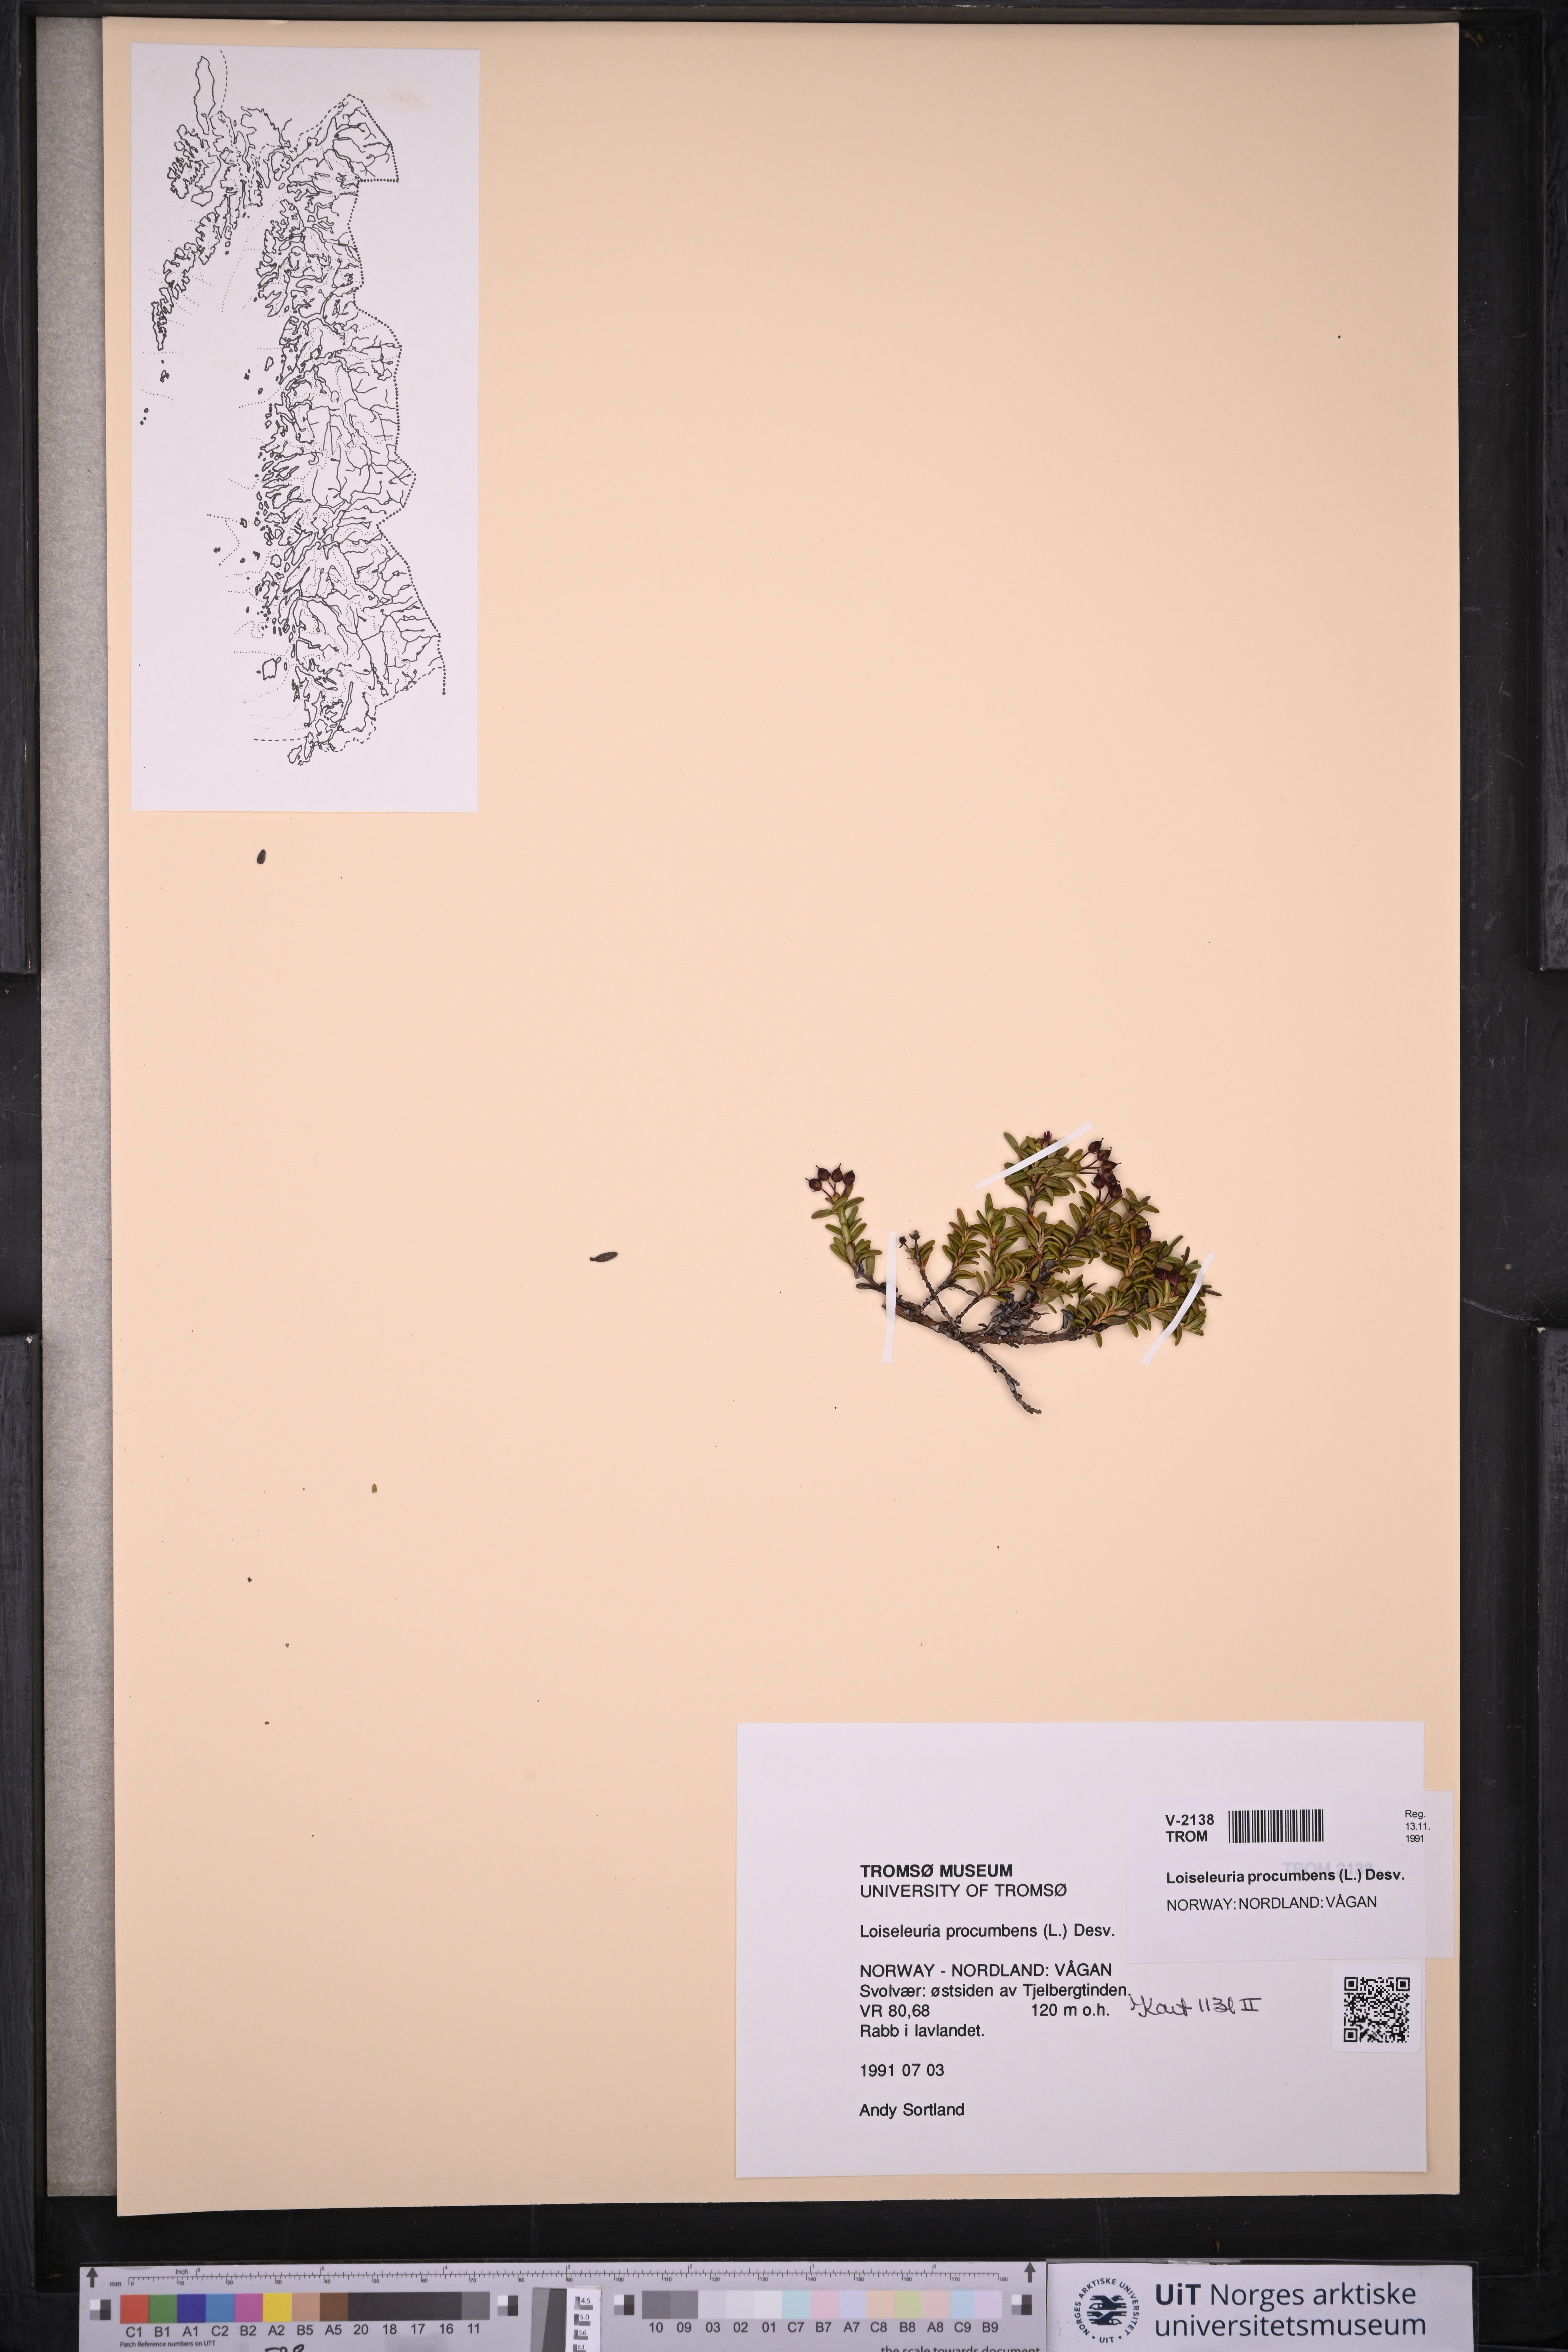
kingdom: Plantae
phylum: Tracheophyta
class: Magnoliopsida
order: Ericales
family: Ericaceae
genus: Kalmia
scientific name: Kalmia procumbens
